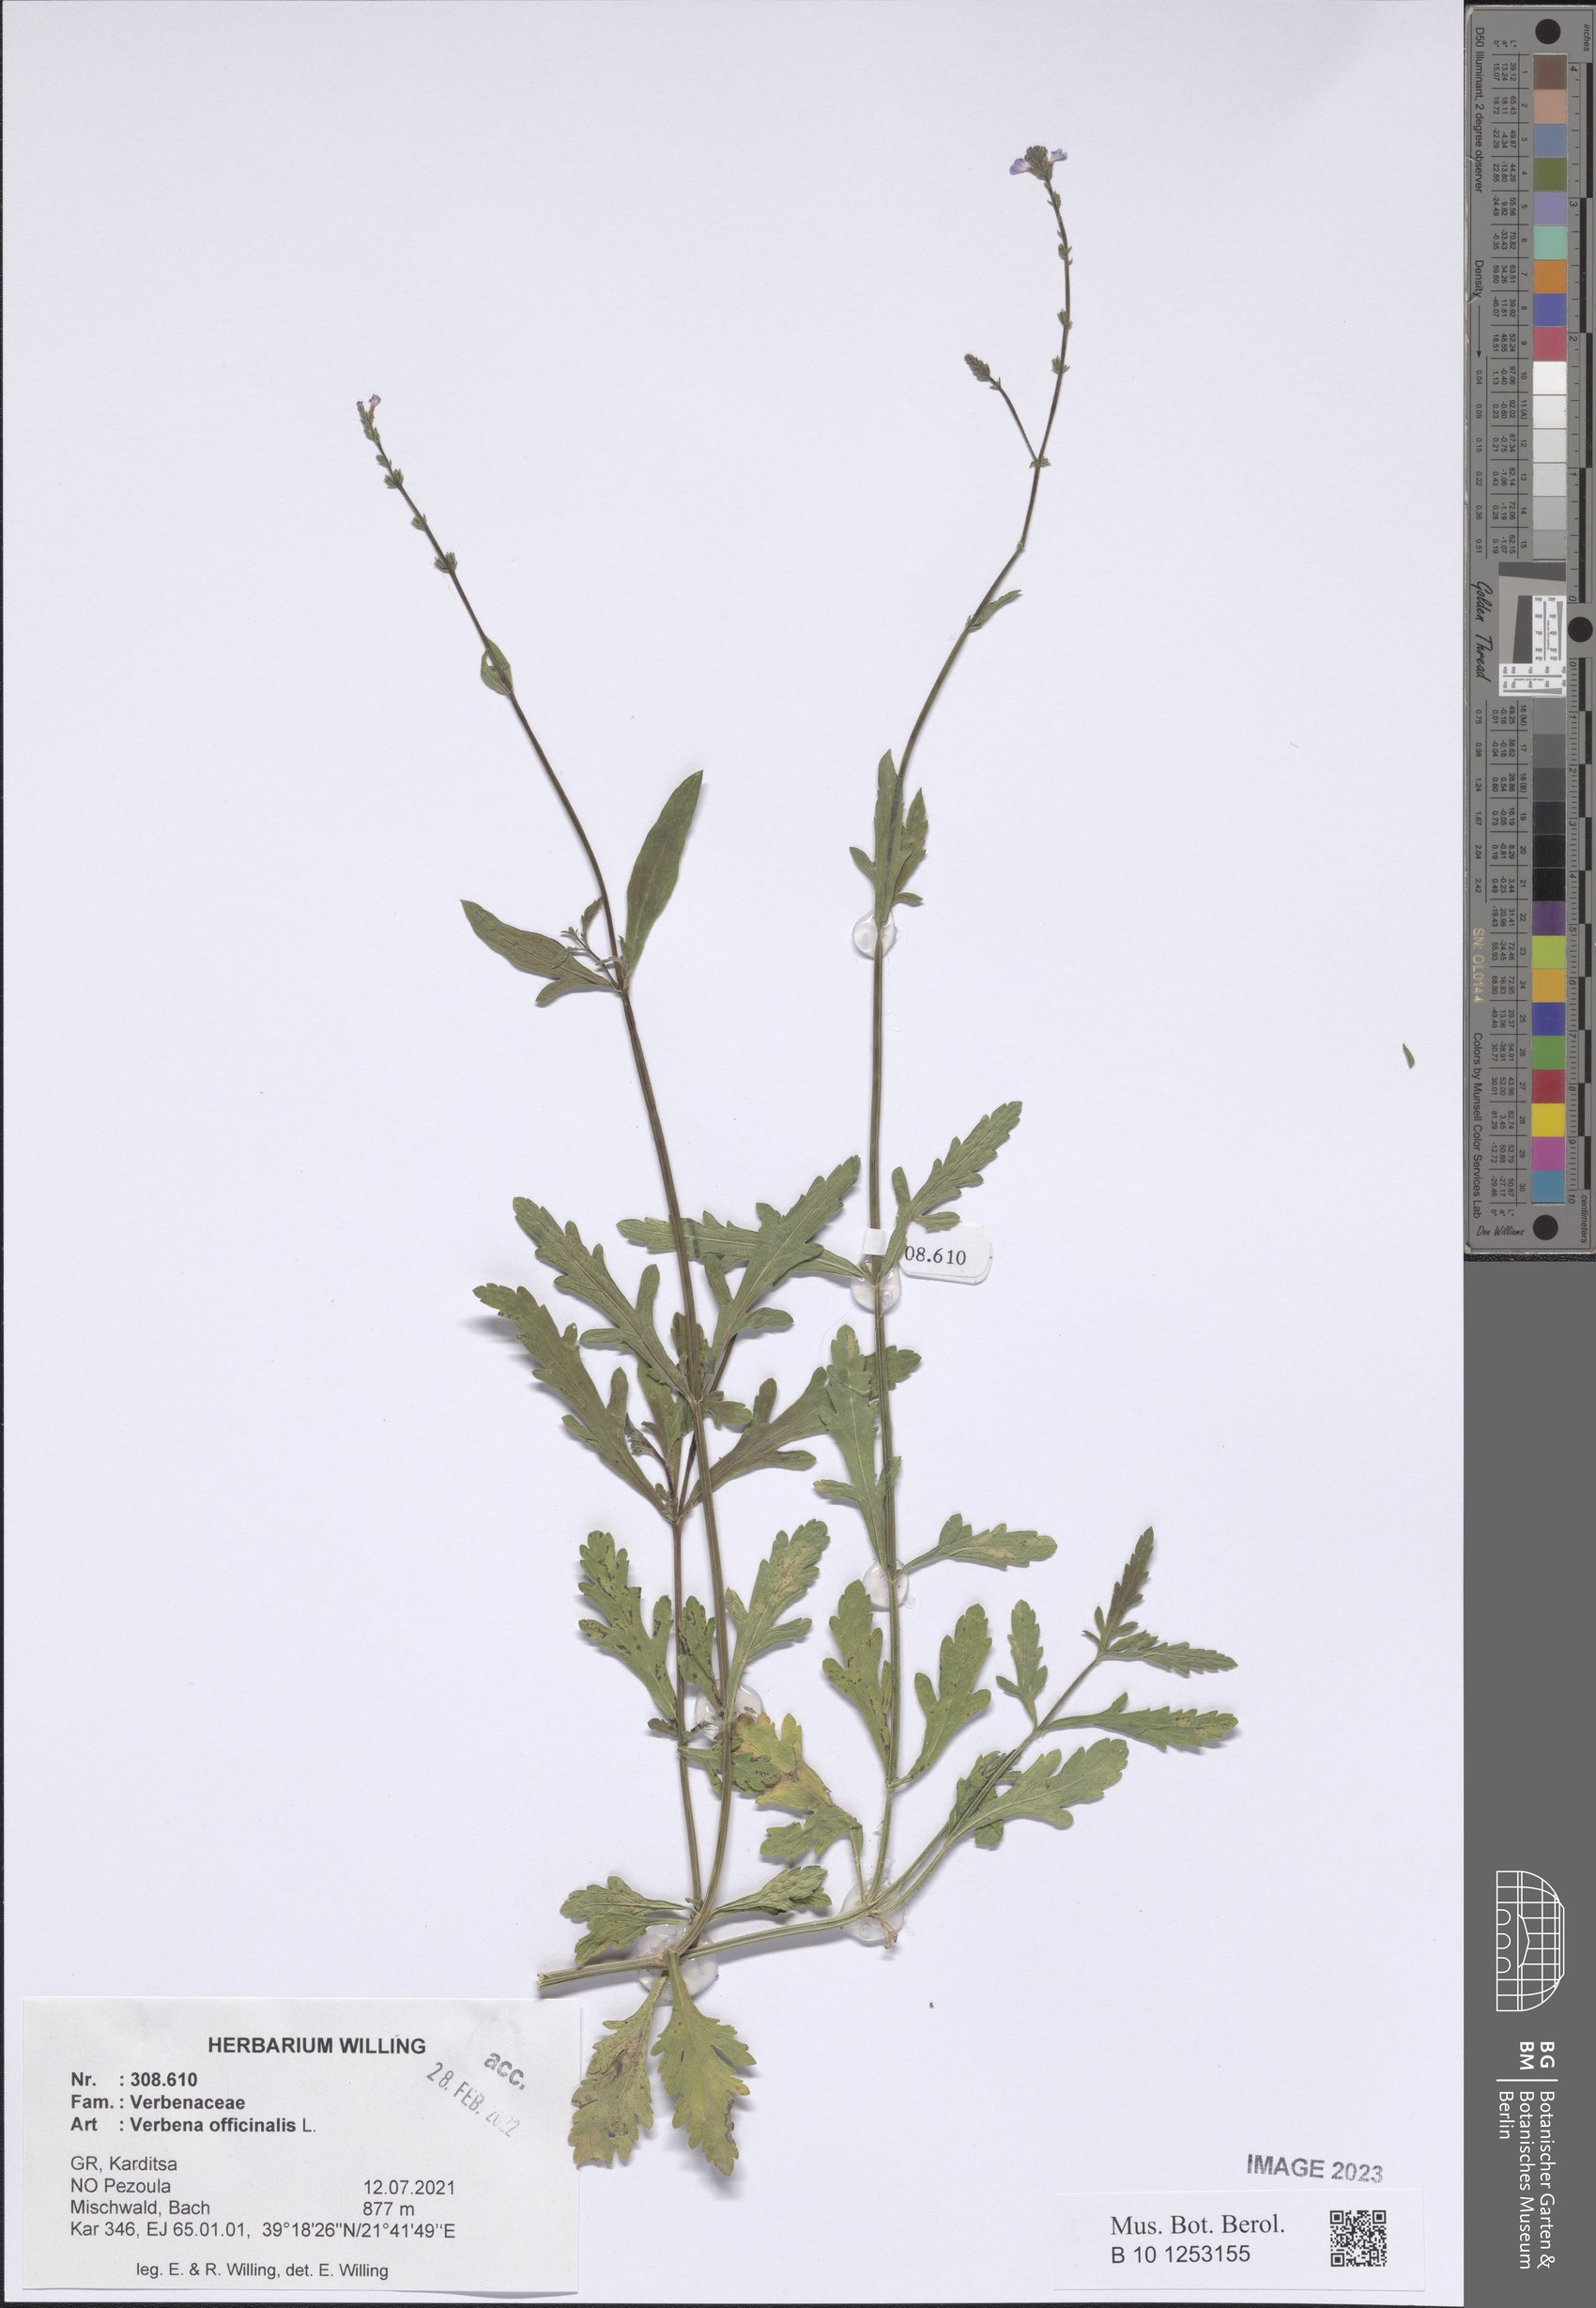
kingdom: Plantae
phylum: Tracheophyta
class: Magnoliopsida
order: Lamiales
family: Verbenaceae
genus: Verbena
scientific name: Verbena officinalis
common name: Vervain
